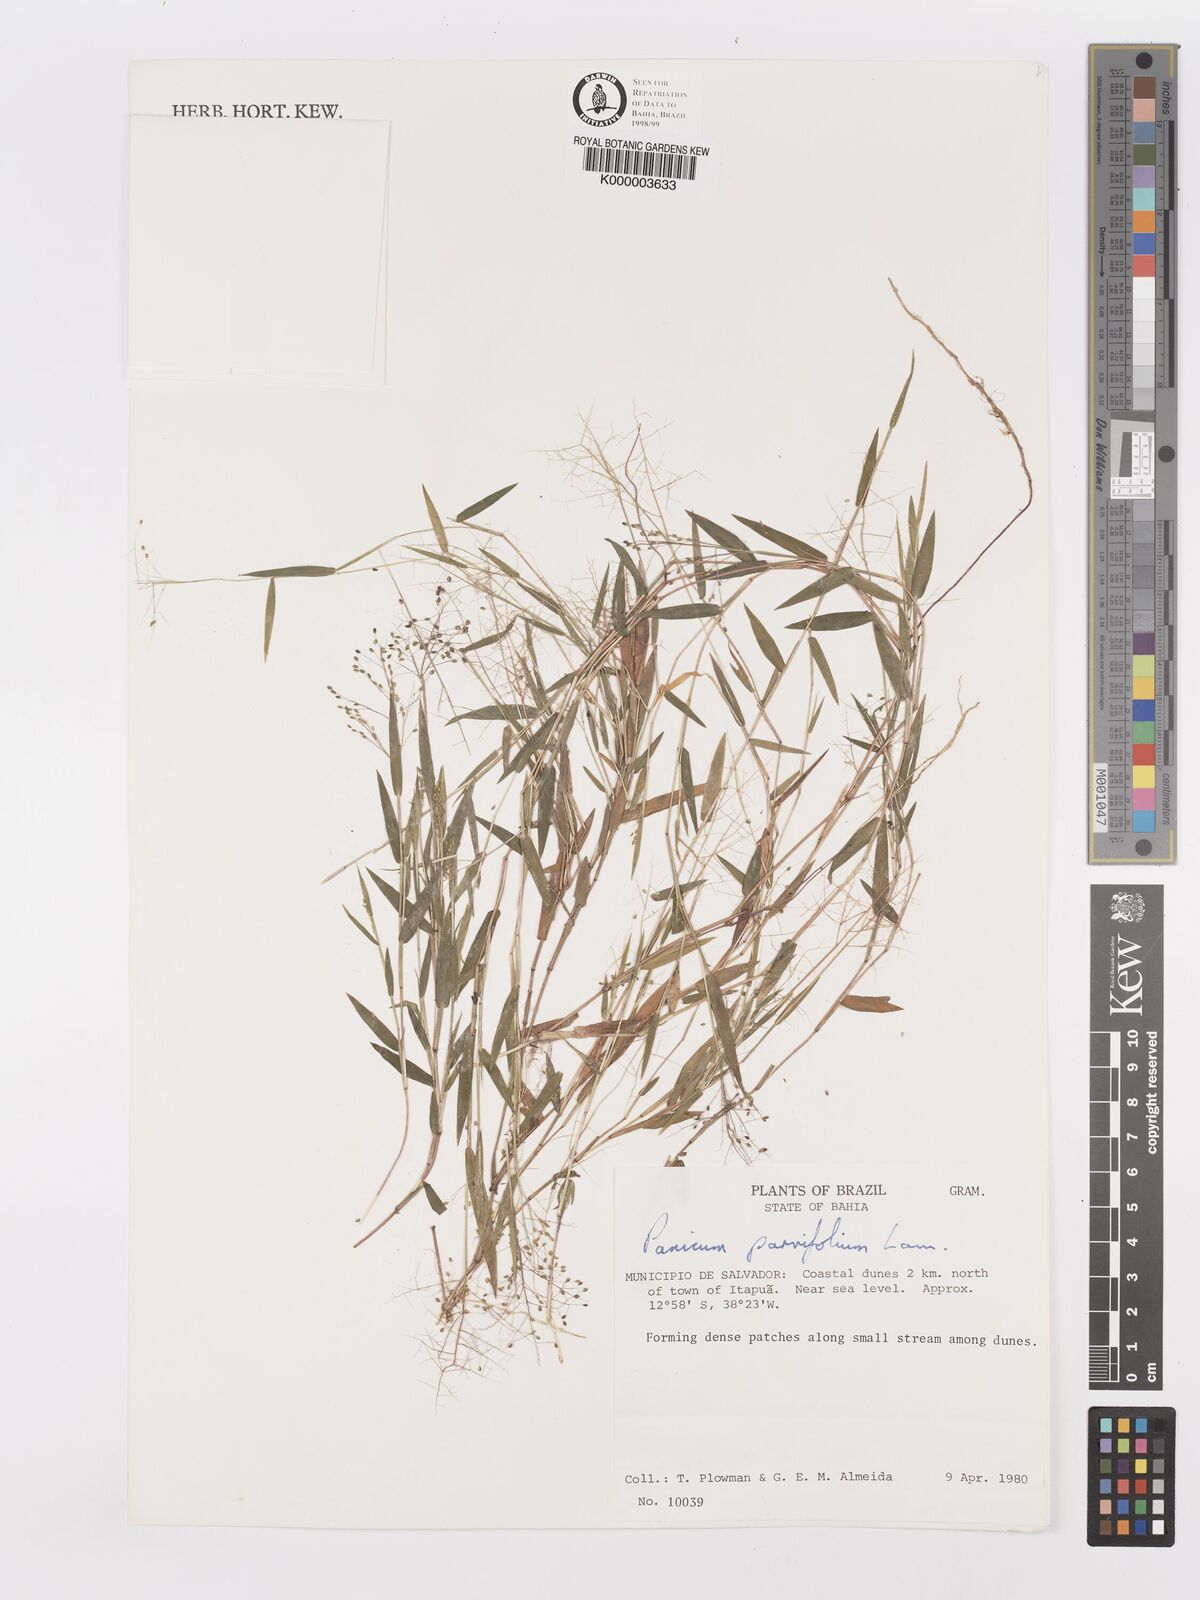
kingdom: Plantae
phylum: Tracheophyta
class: Liliopsida
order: Poales
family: Poaceae
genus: Trichanthecium
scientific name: Trichanthecium parvifolium
